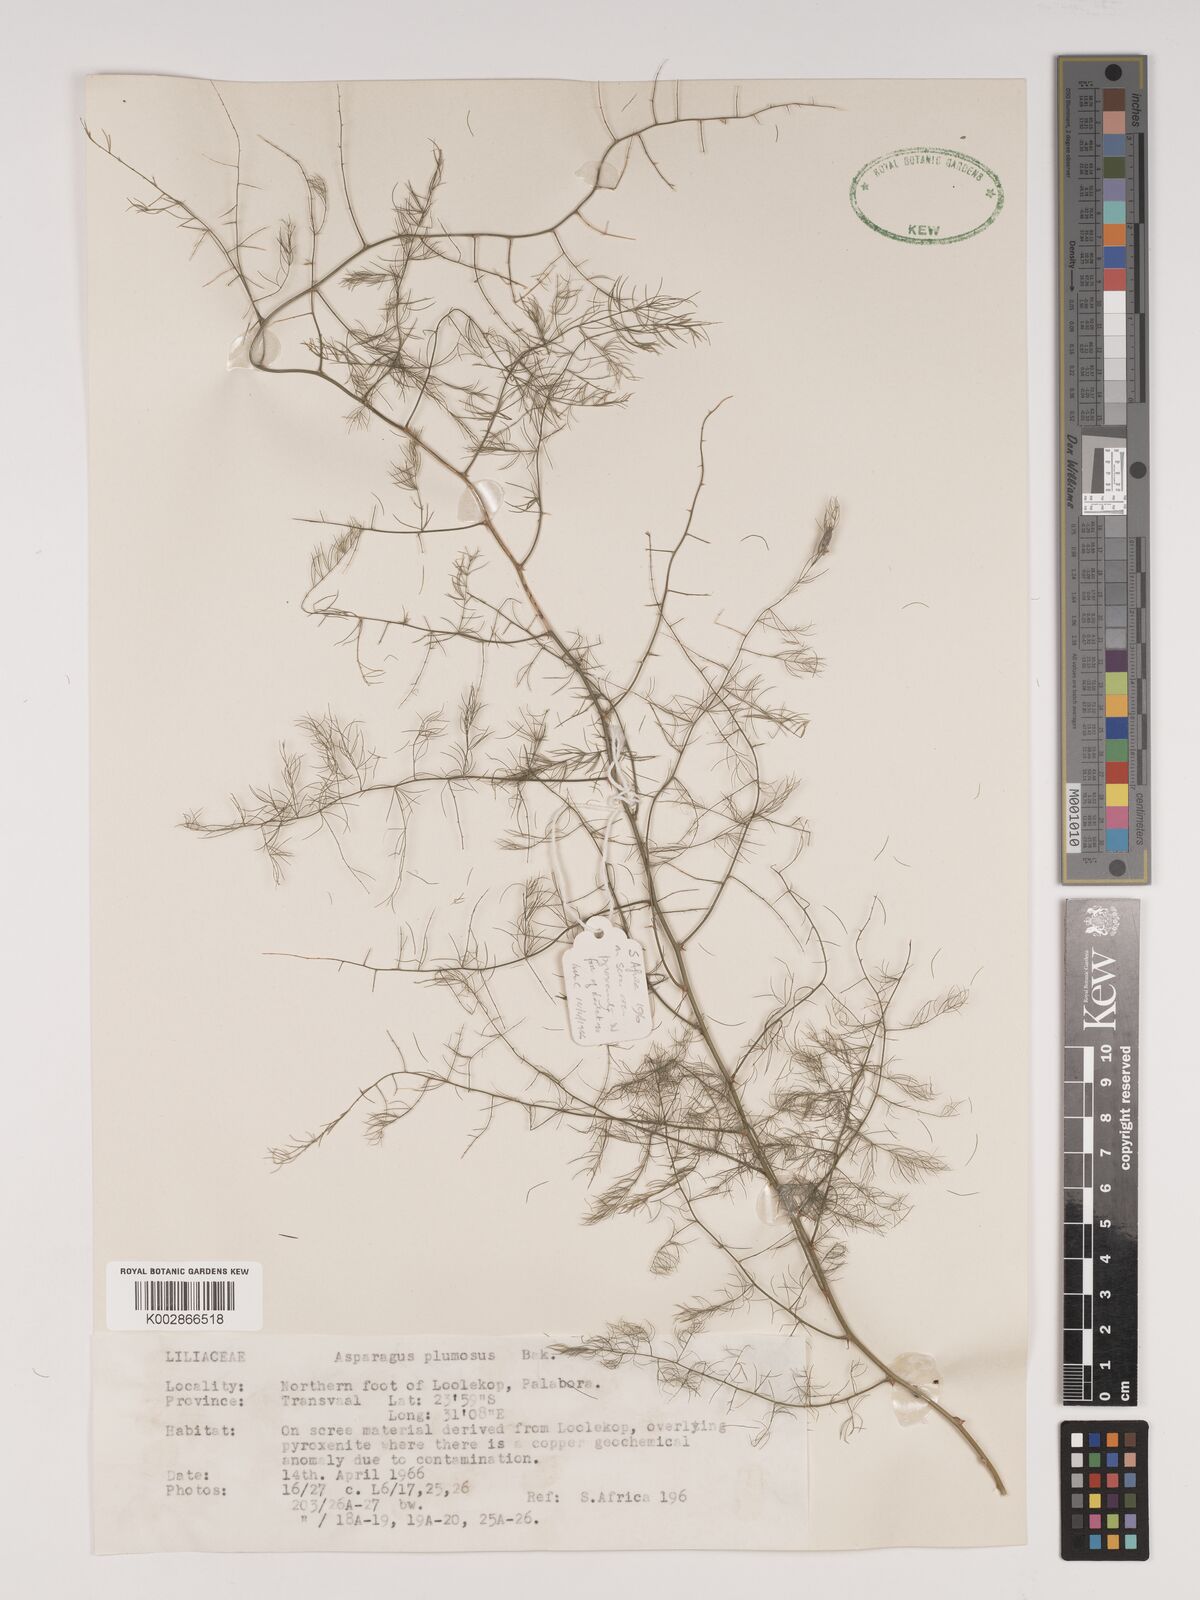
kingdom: Plantae
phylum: Tracheophyta
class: Liliopsida
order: Asparagales
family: Asparagaceae
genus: Asparagus
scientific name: Asparagus setaceus
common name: Common asparagus fern
